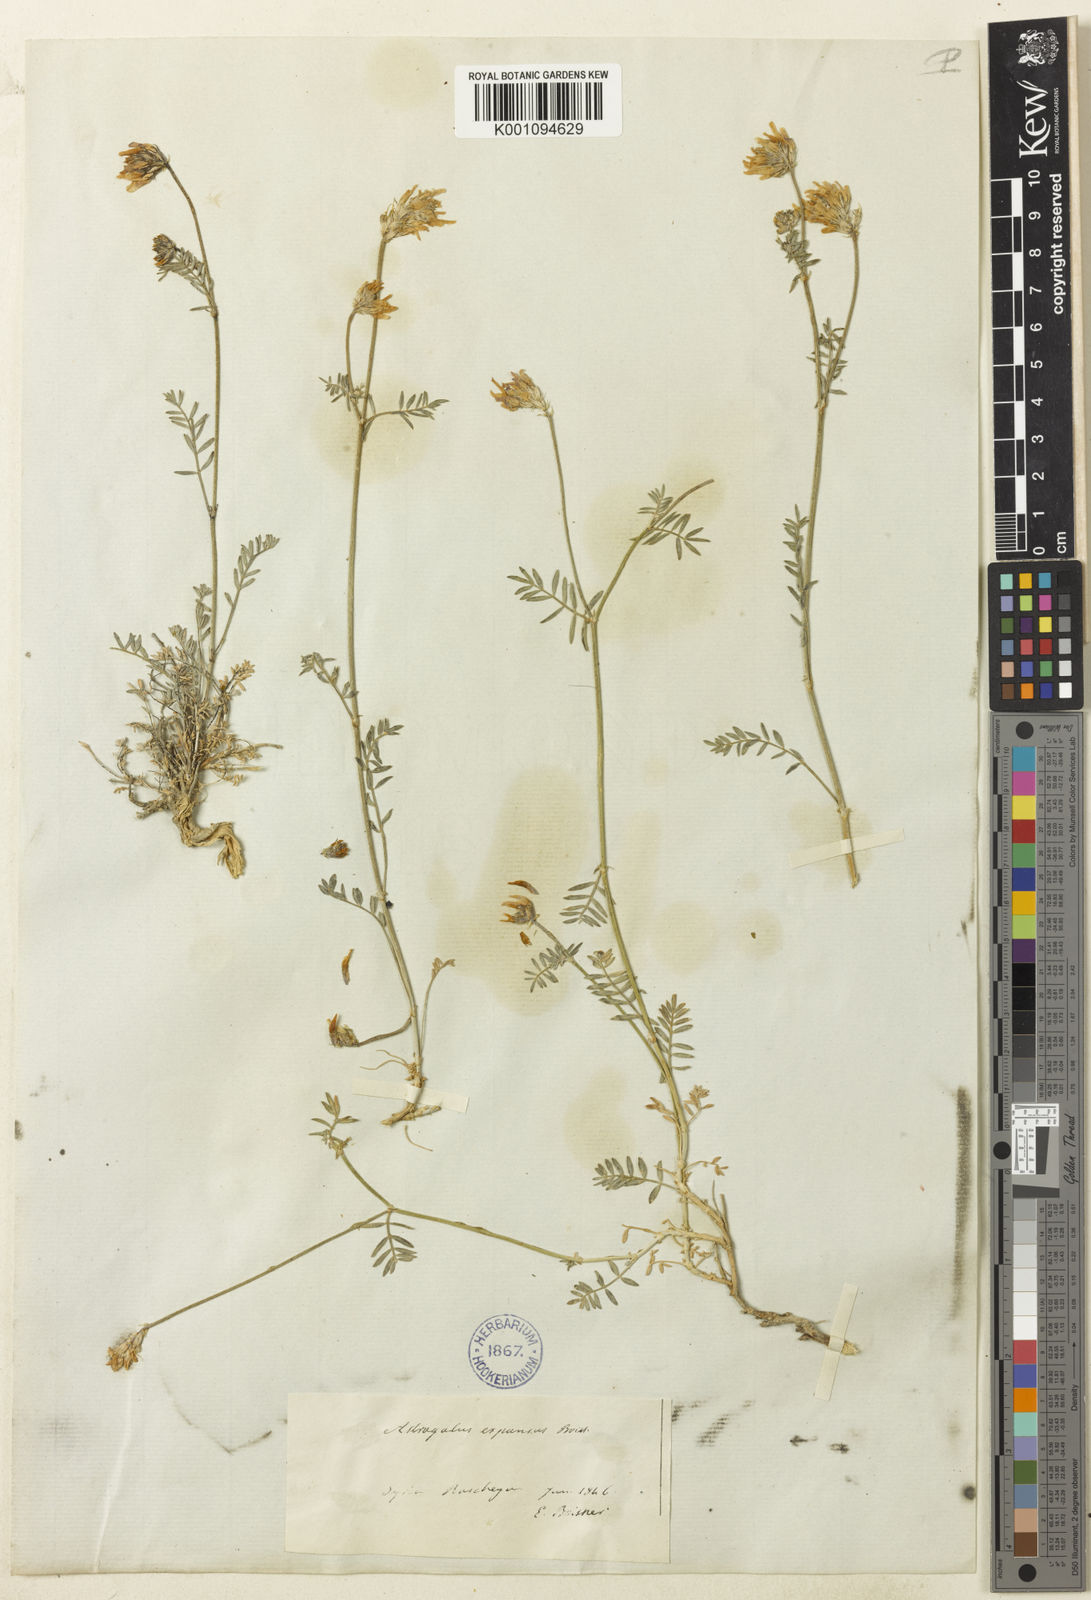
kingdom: Plantae
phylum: Tracheophyta
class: Magnoliopsida
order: Fabales
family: Fabaceae
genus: Astragalus
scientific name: Astragalus
